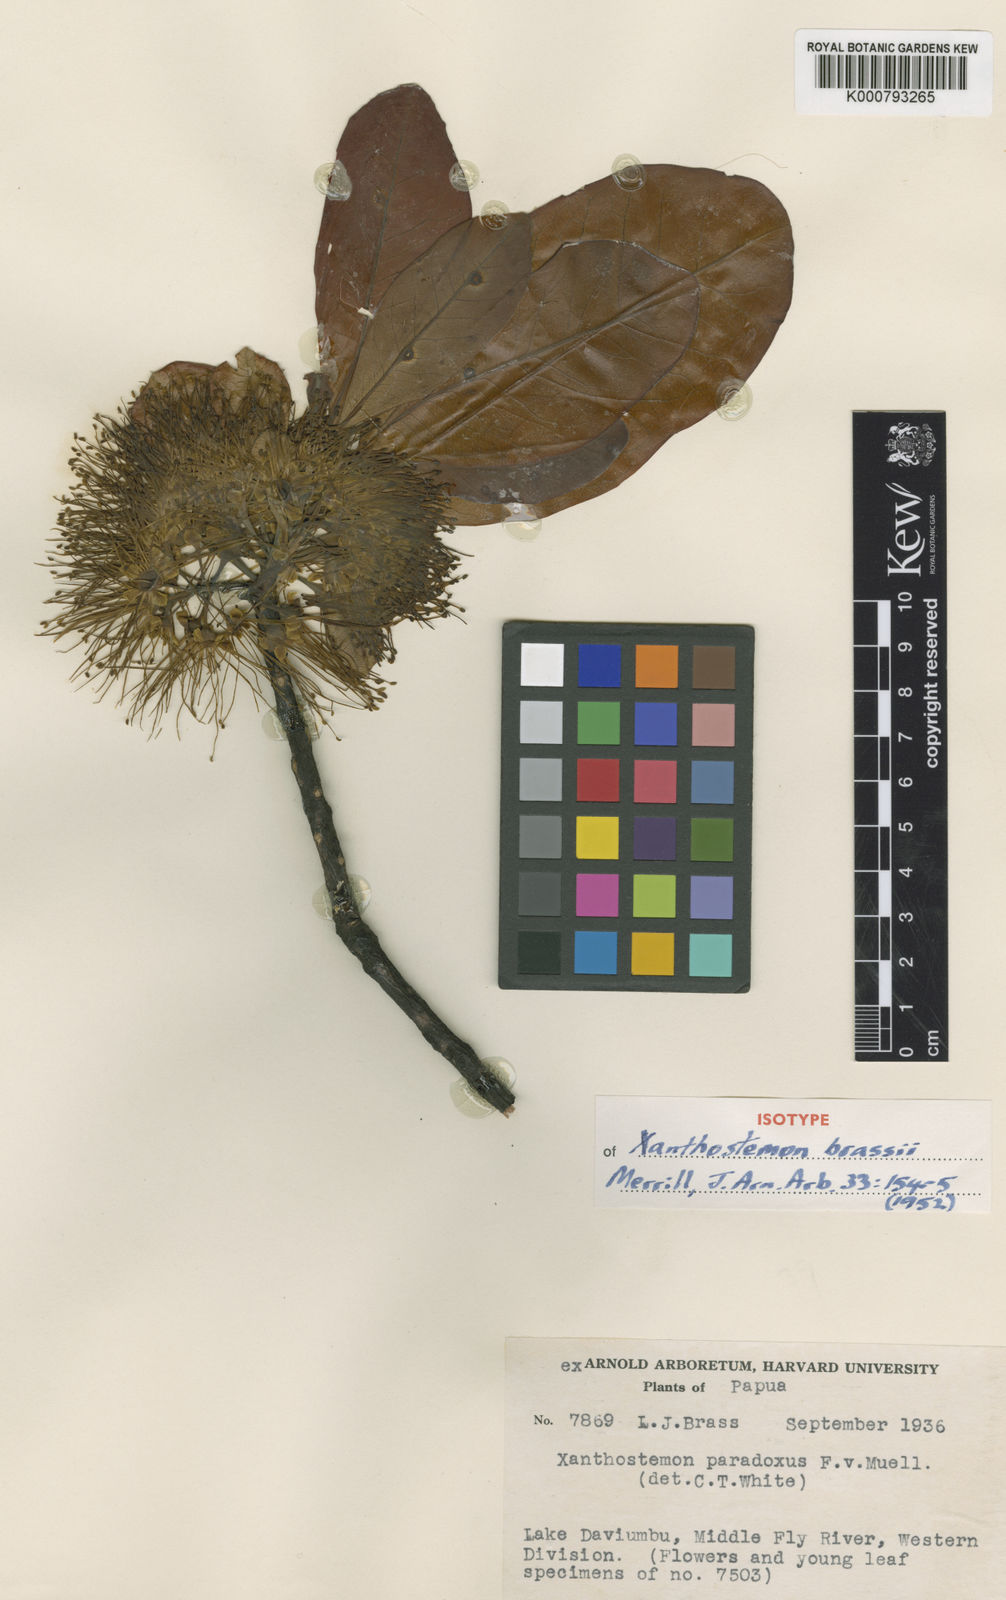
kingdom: Plantae
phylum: Tracheophyta
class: Magnoliopsida
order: Myrtales
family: Myrtaceae
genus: Xanthostemon
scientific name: Xanthostemon brassii
